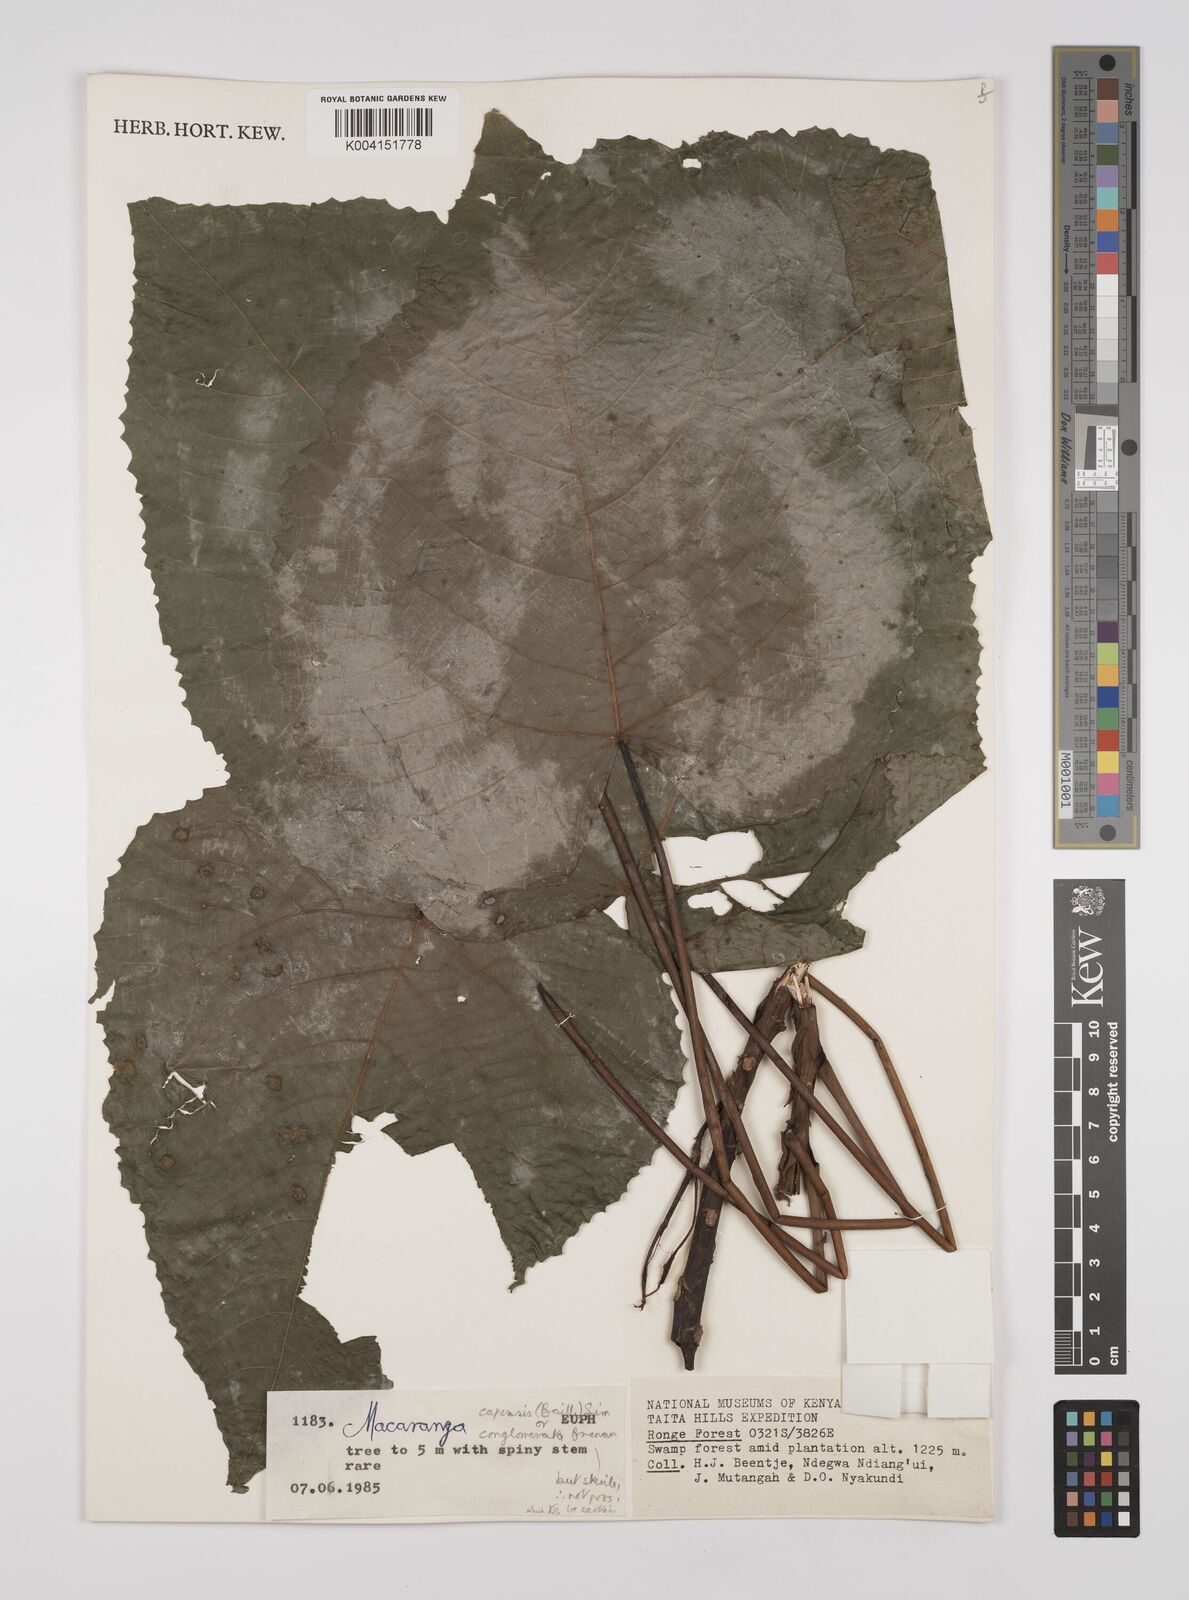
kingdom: Plantae
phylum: Tracheophyta
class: Magnoliopsida
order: Malpighiales
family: Euphorbiaceae
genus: Macaranga
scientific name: Macaranga capensis
